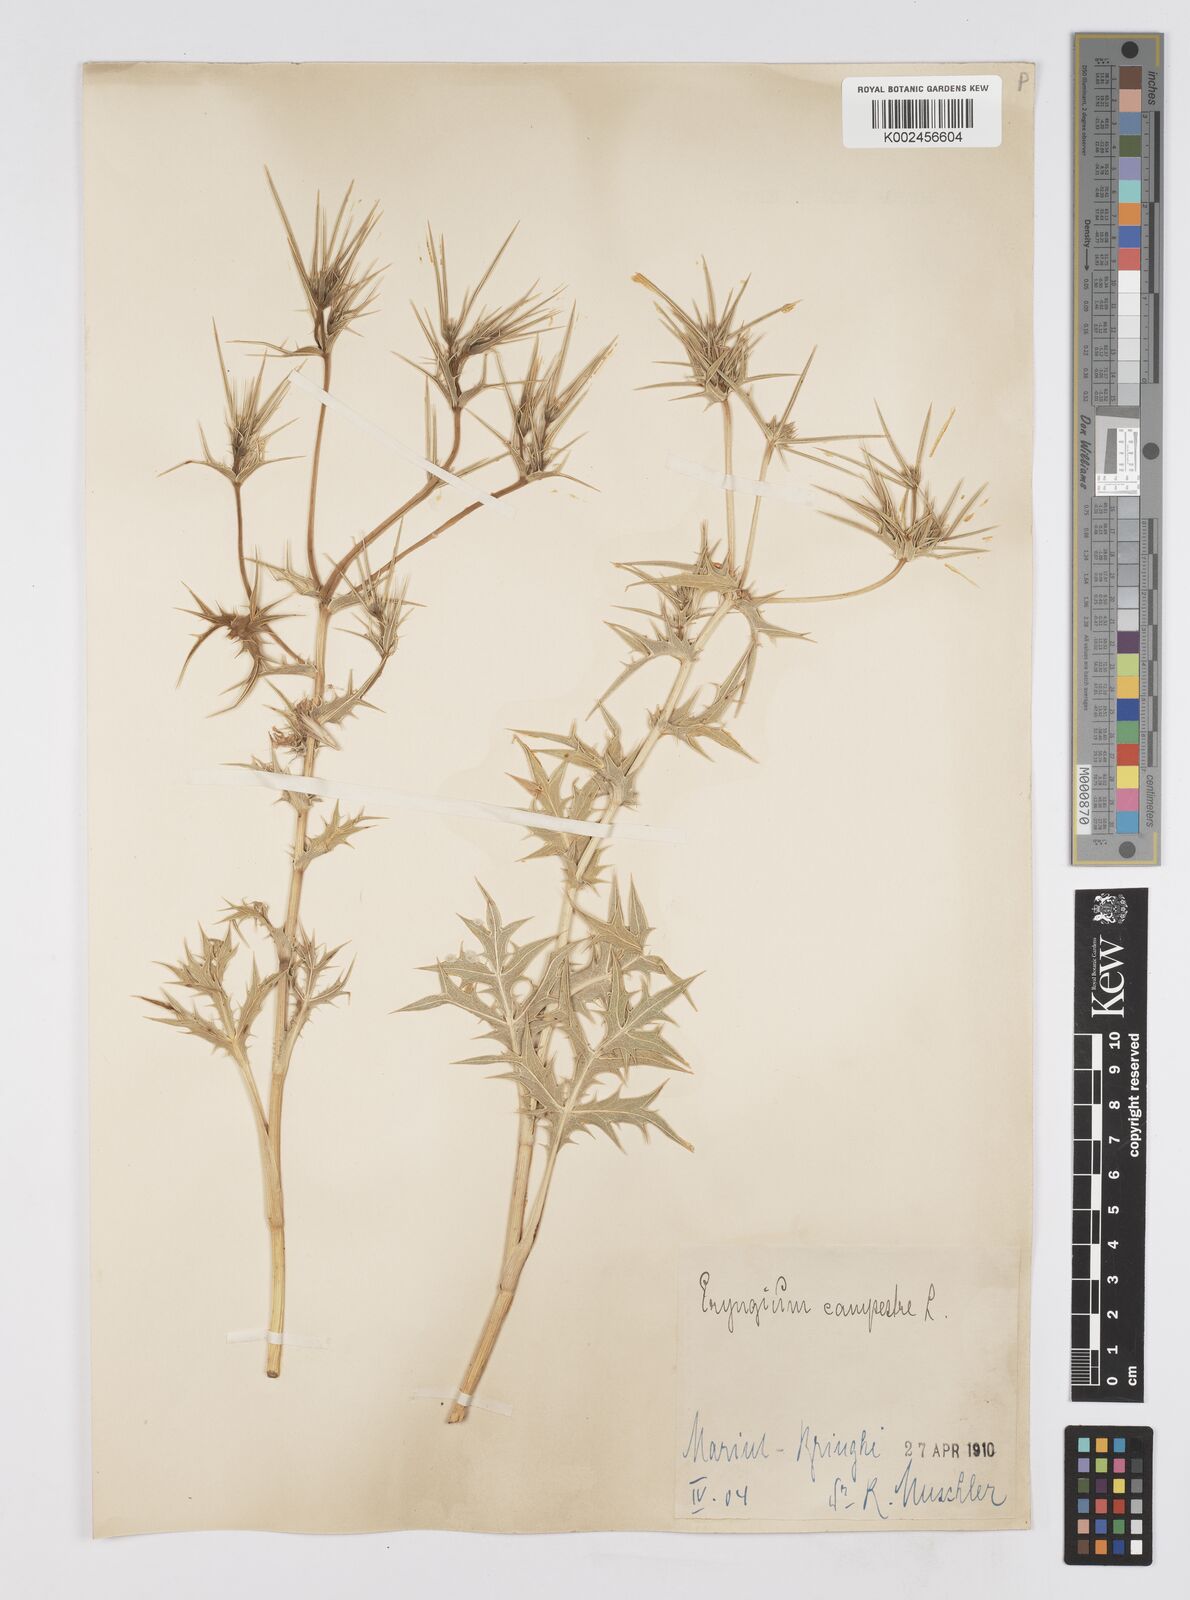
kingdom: Plantae
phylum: Tracheophyta
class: Magnoliopsida
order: Apiales
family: Apiaceae
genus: Eryngium
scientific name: Eryngium campestre
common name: Field eryngo
